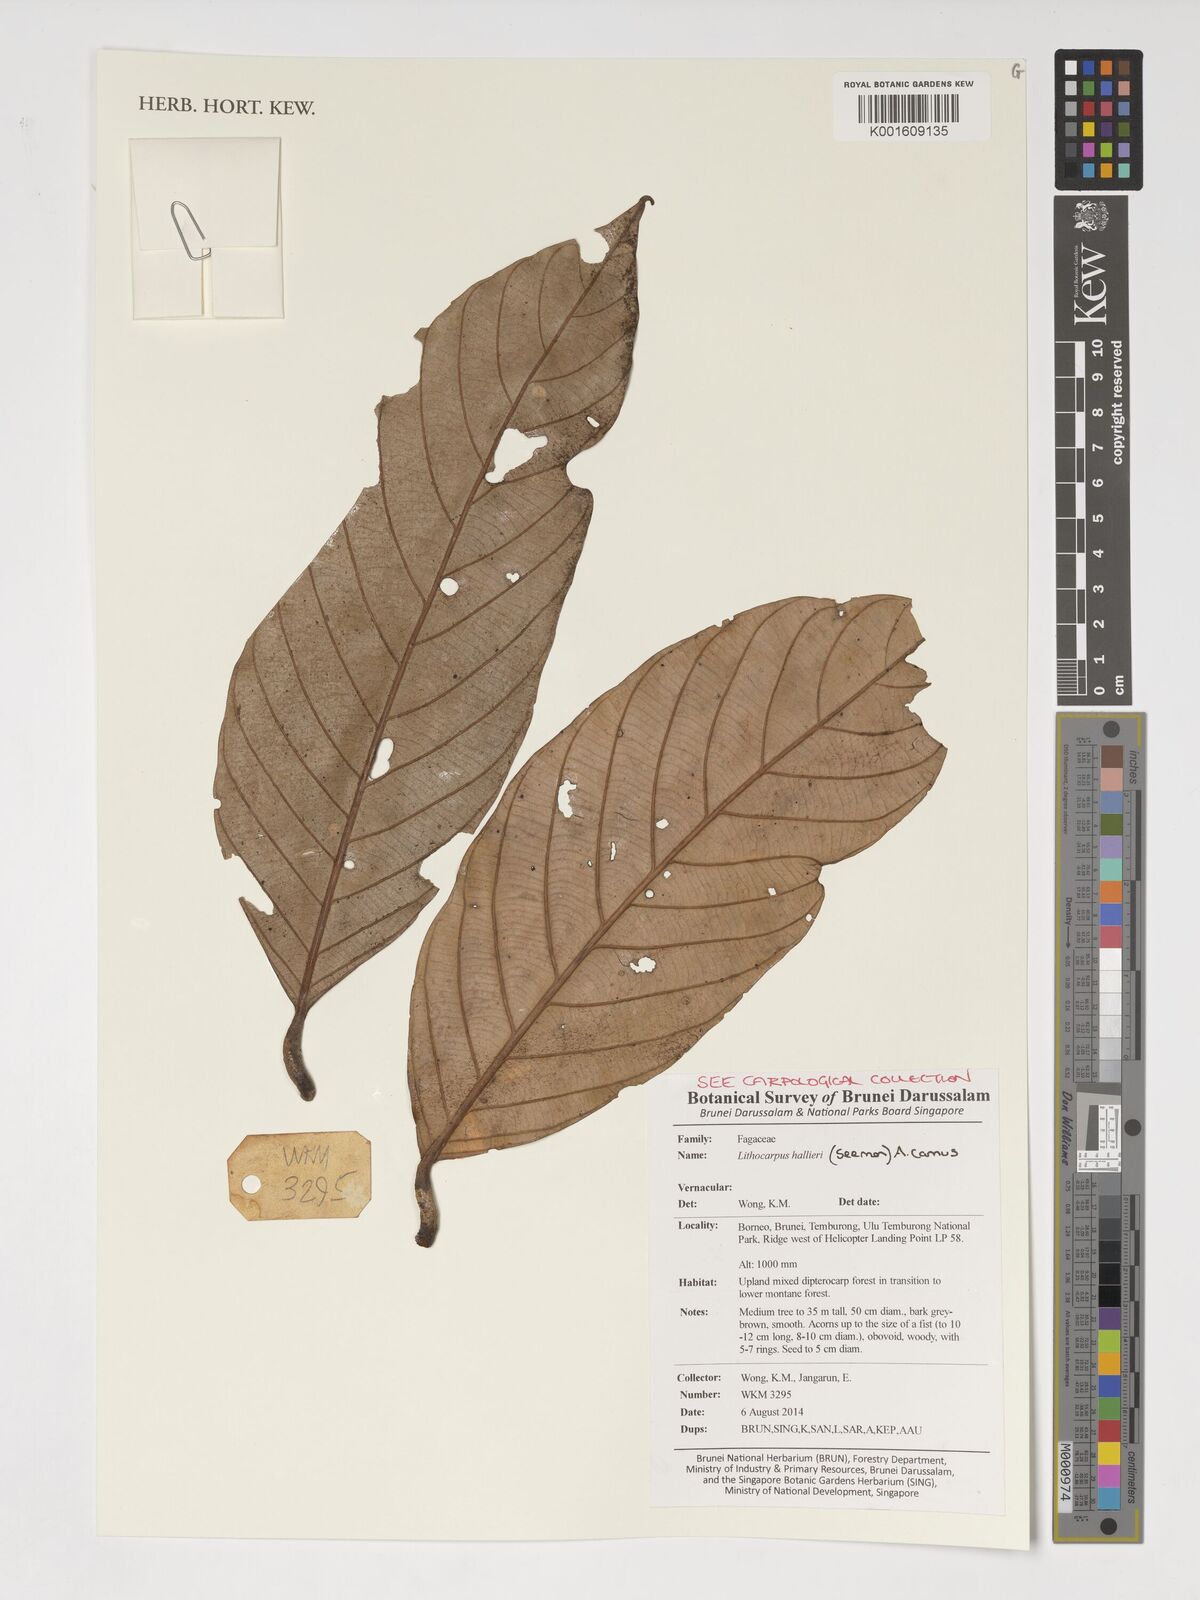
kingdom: Plantae
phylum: Tracheophyta
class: Magnoliopsida
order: Fagales
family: Fagaceae
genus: Lithocarpus
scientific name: Lithocarpus hallieri
